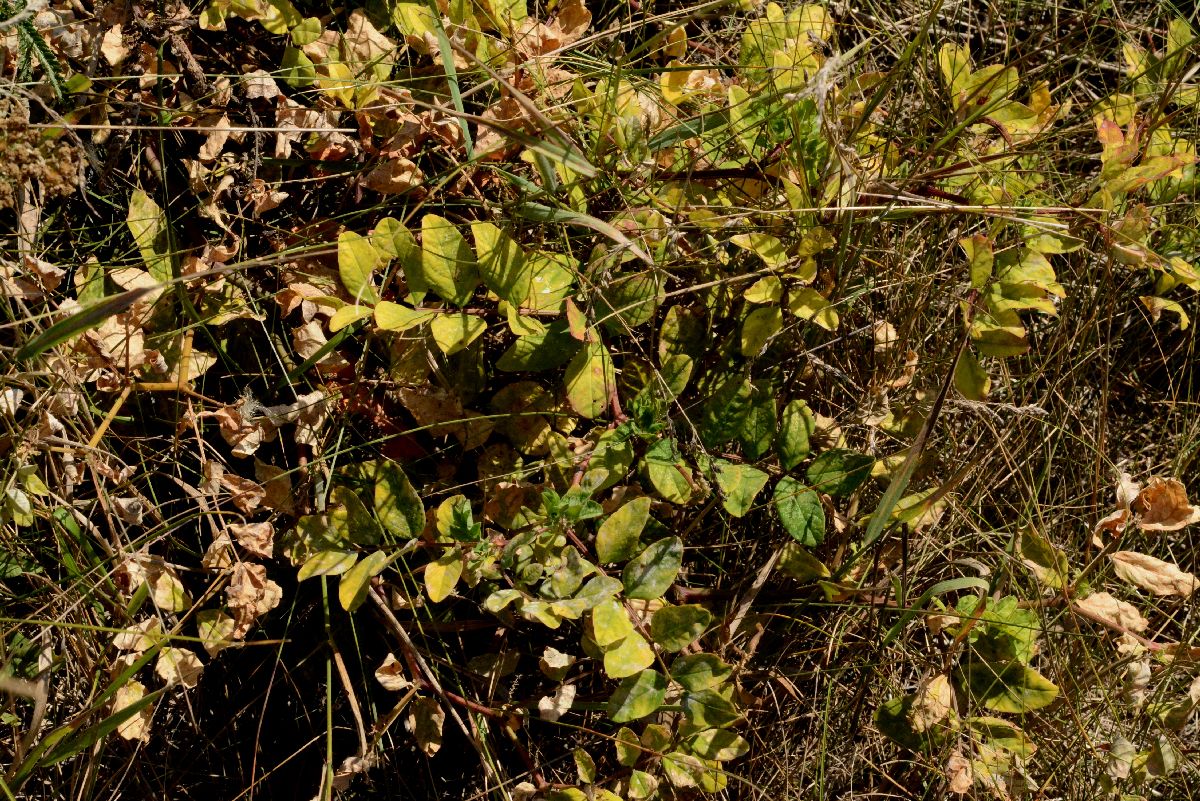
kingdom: Plantae
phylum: Tracheophyta
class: Magnoliopsida
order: Fabales
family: Fabaceae
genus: Astragalus
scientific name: Astragalus glycyphyllos
